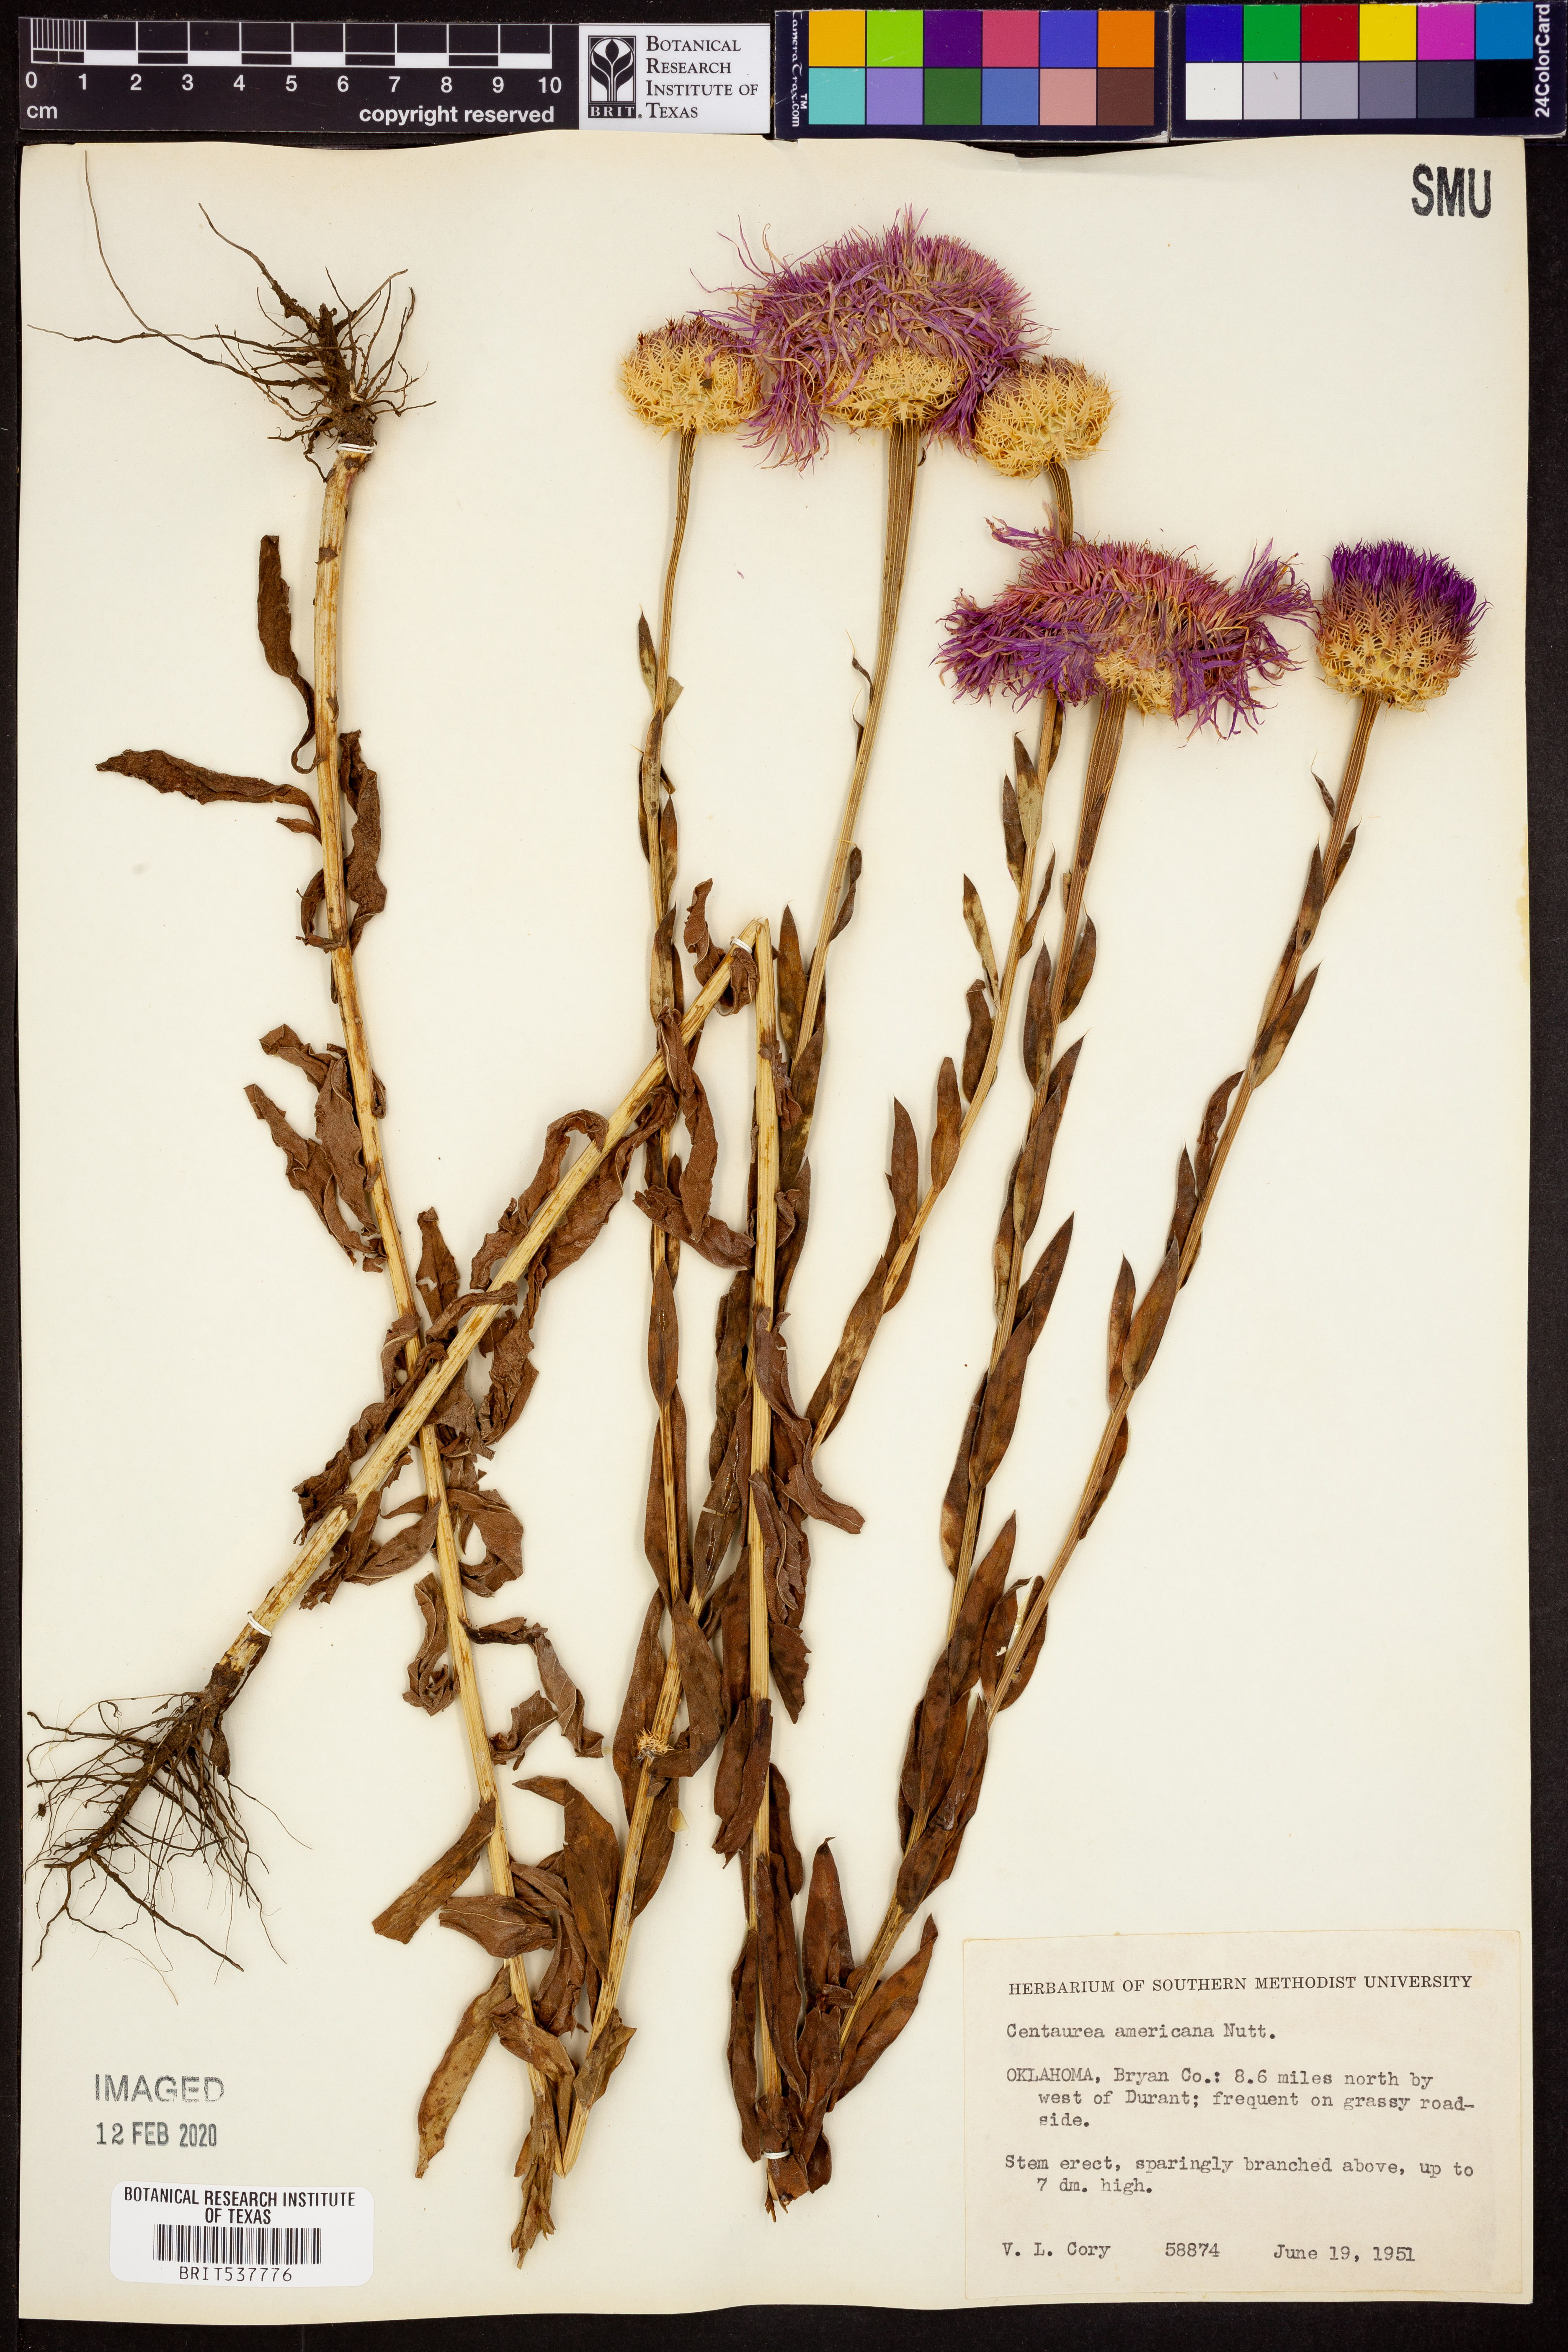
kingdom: Plantae
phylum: Tracheophyta
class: Magnoliopsida
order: Asterales
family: Asteraceae
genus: Plectocephalus
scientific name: Plectocephalus americanus
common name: American basket-flower
